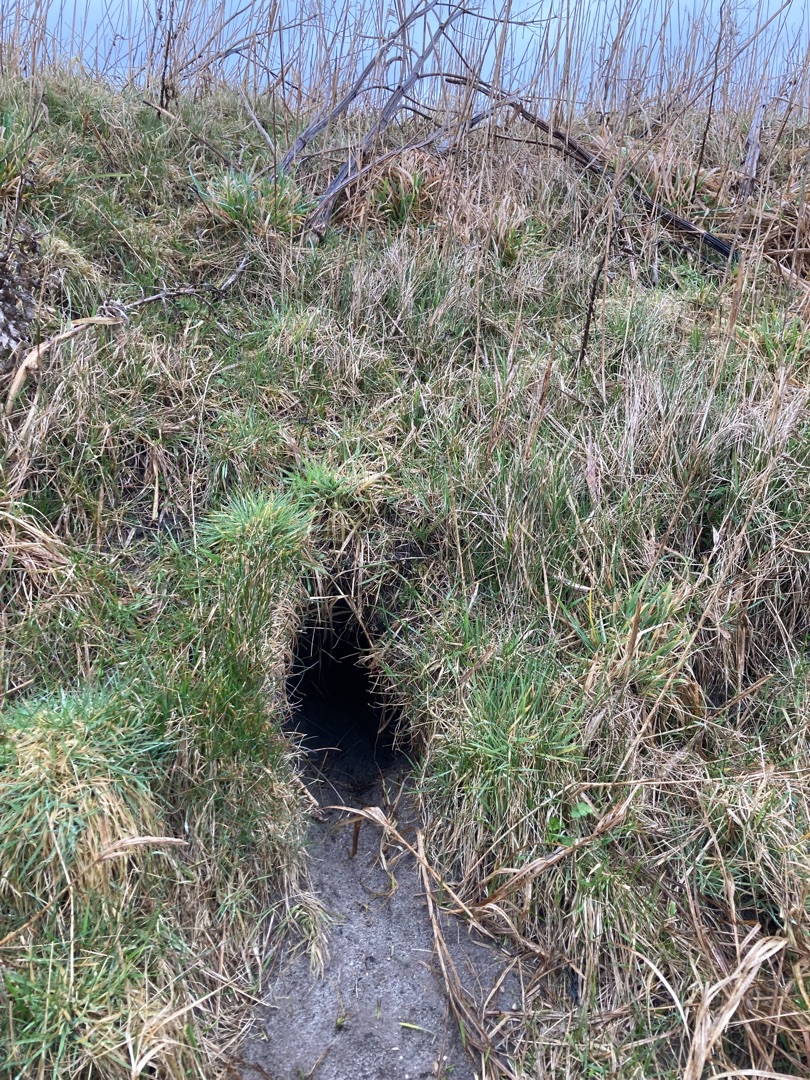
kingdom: Animalia
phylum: Chordata
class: Mammalia
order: Carnivora
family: Mustelidae
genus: Lutra
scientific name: Lutra lutra
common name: Odder
